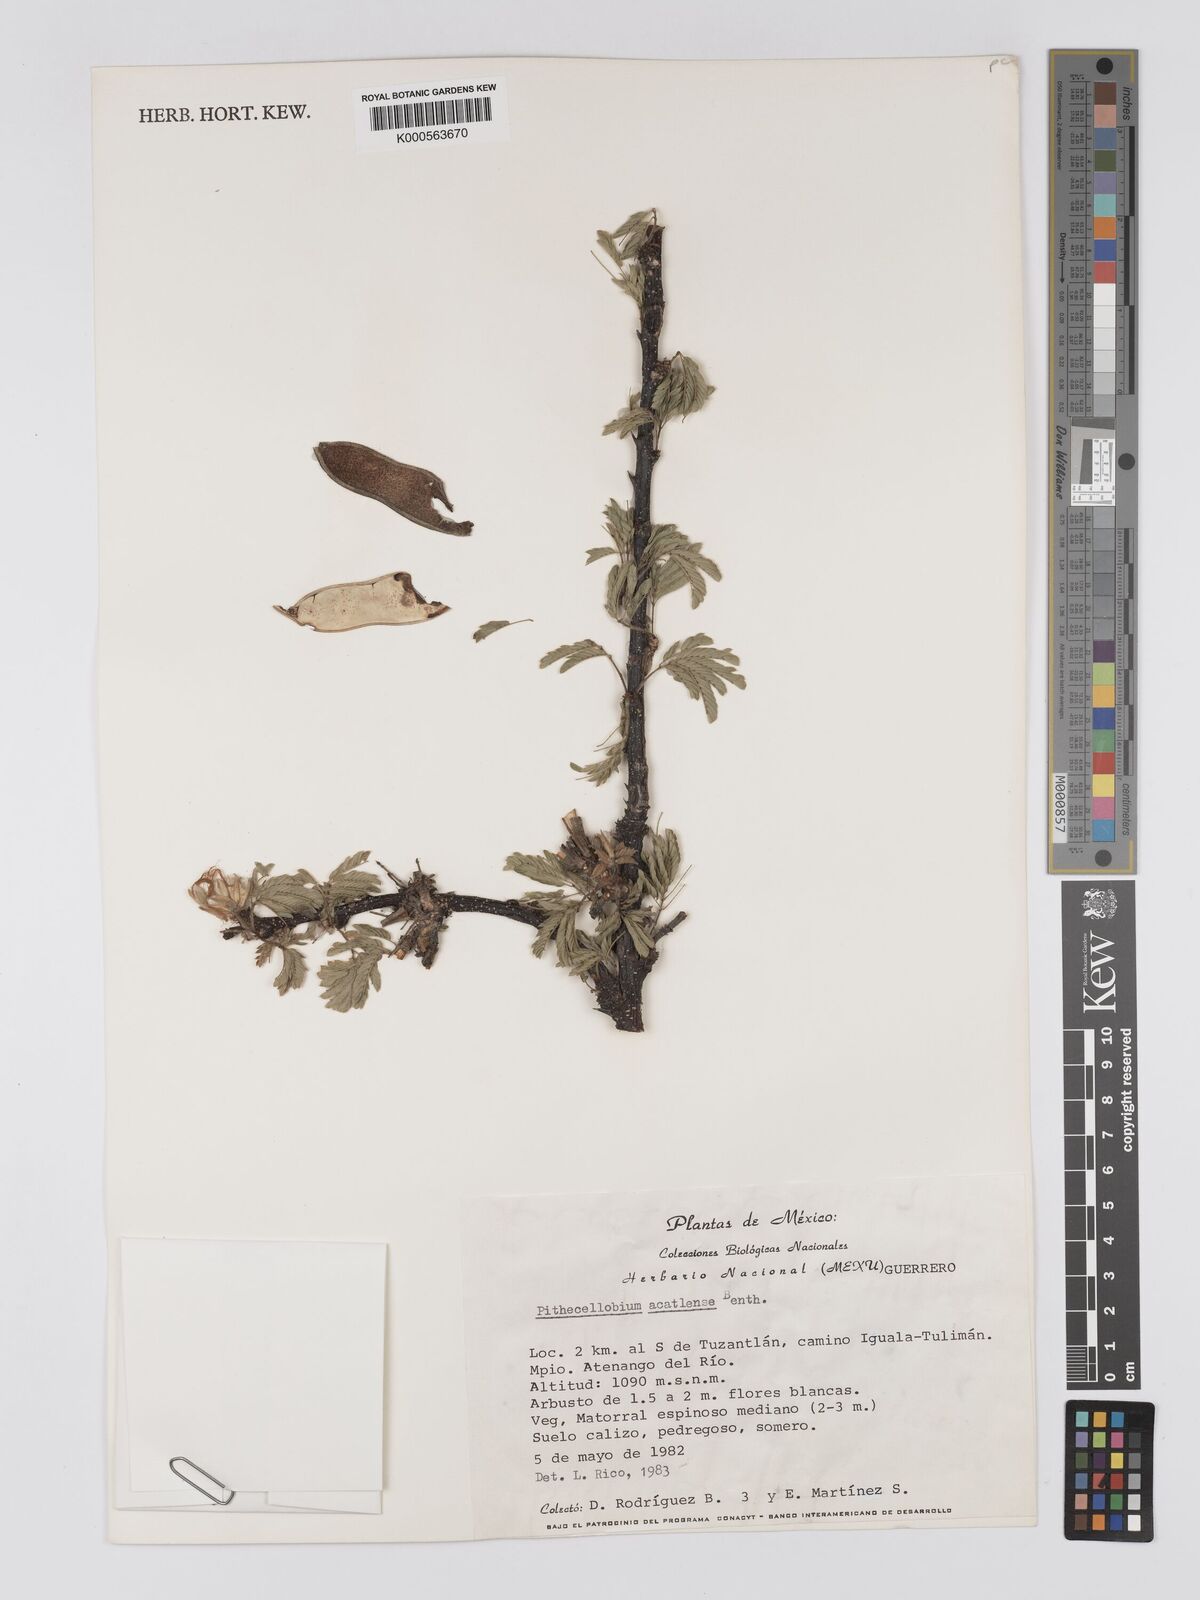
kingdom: Plantae
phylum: Tracheophyta
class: Magnoliopsida
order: Fabales
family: Fabaceae
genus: Havardia
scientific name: Havardia acatlensis
